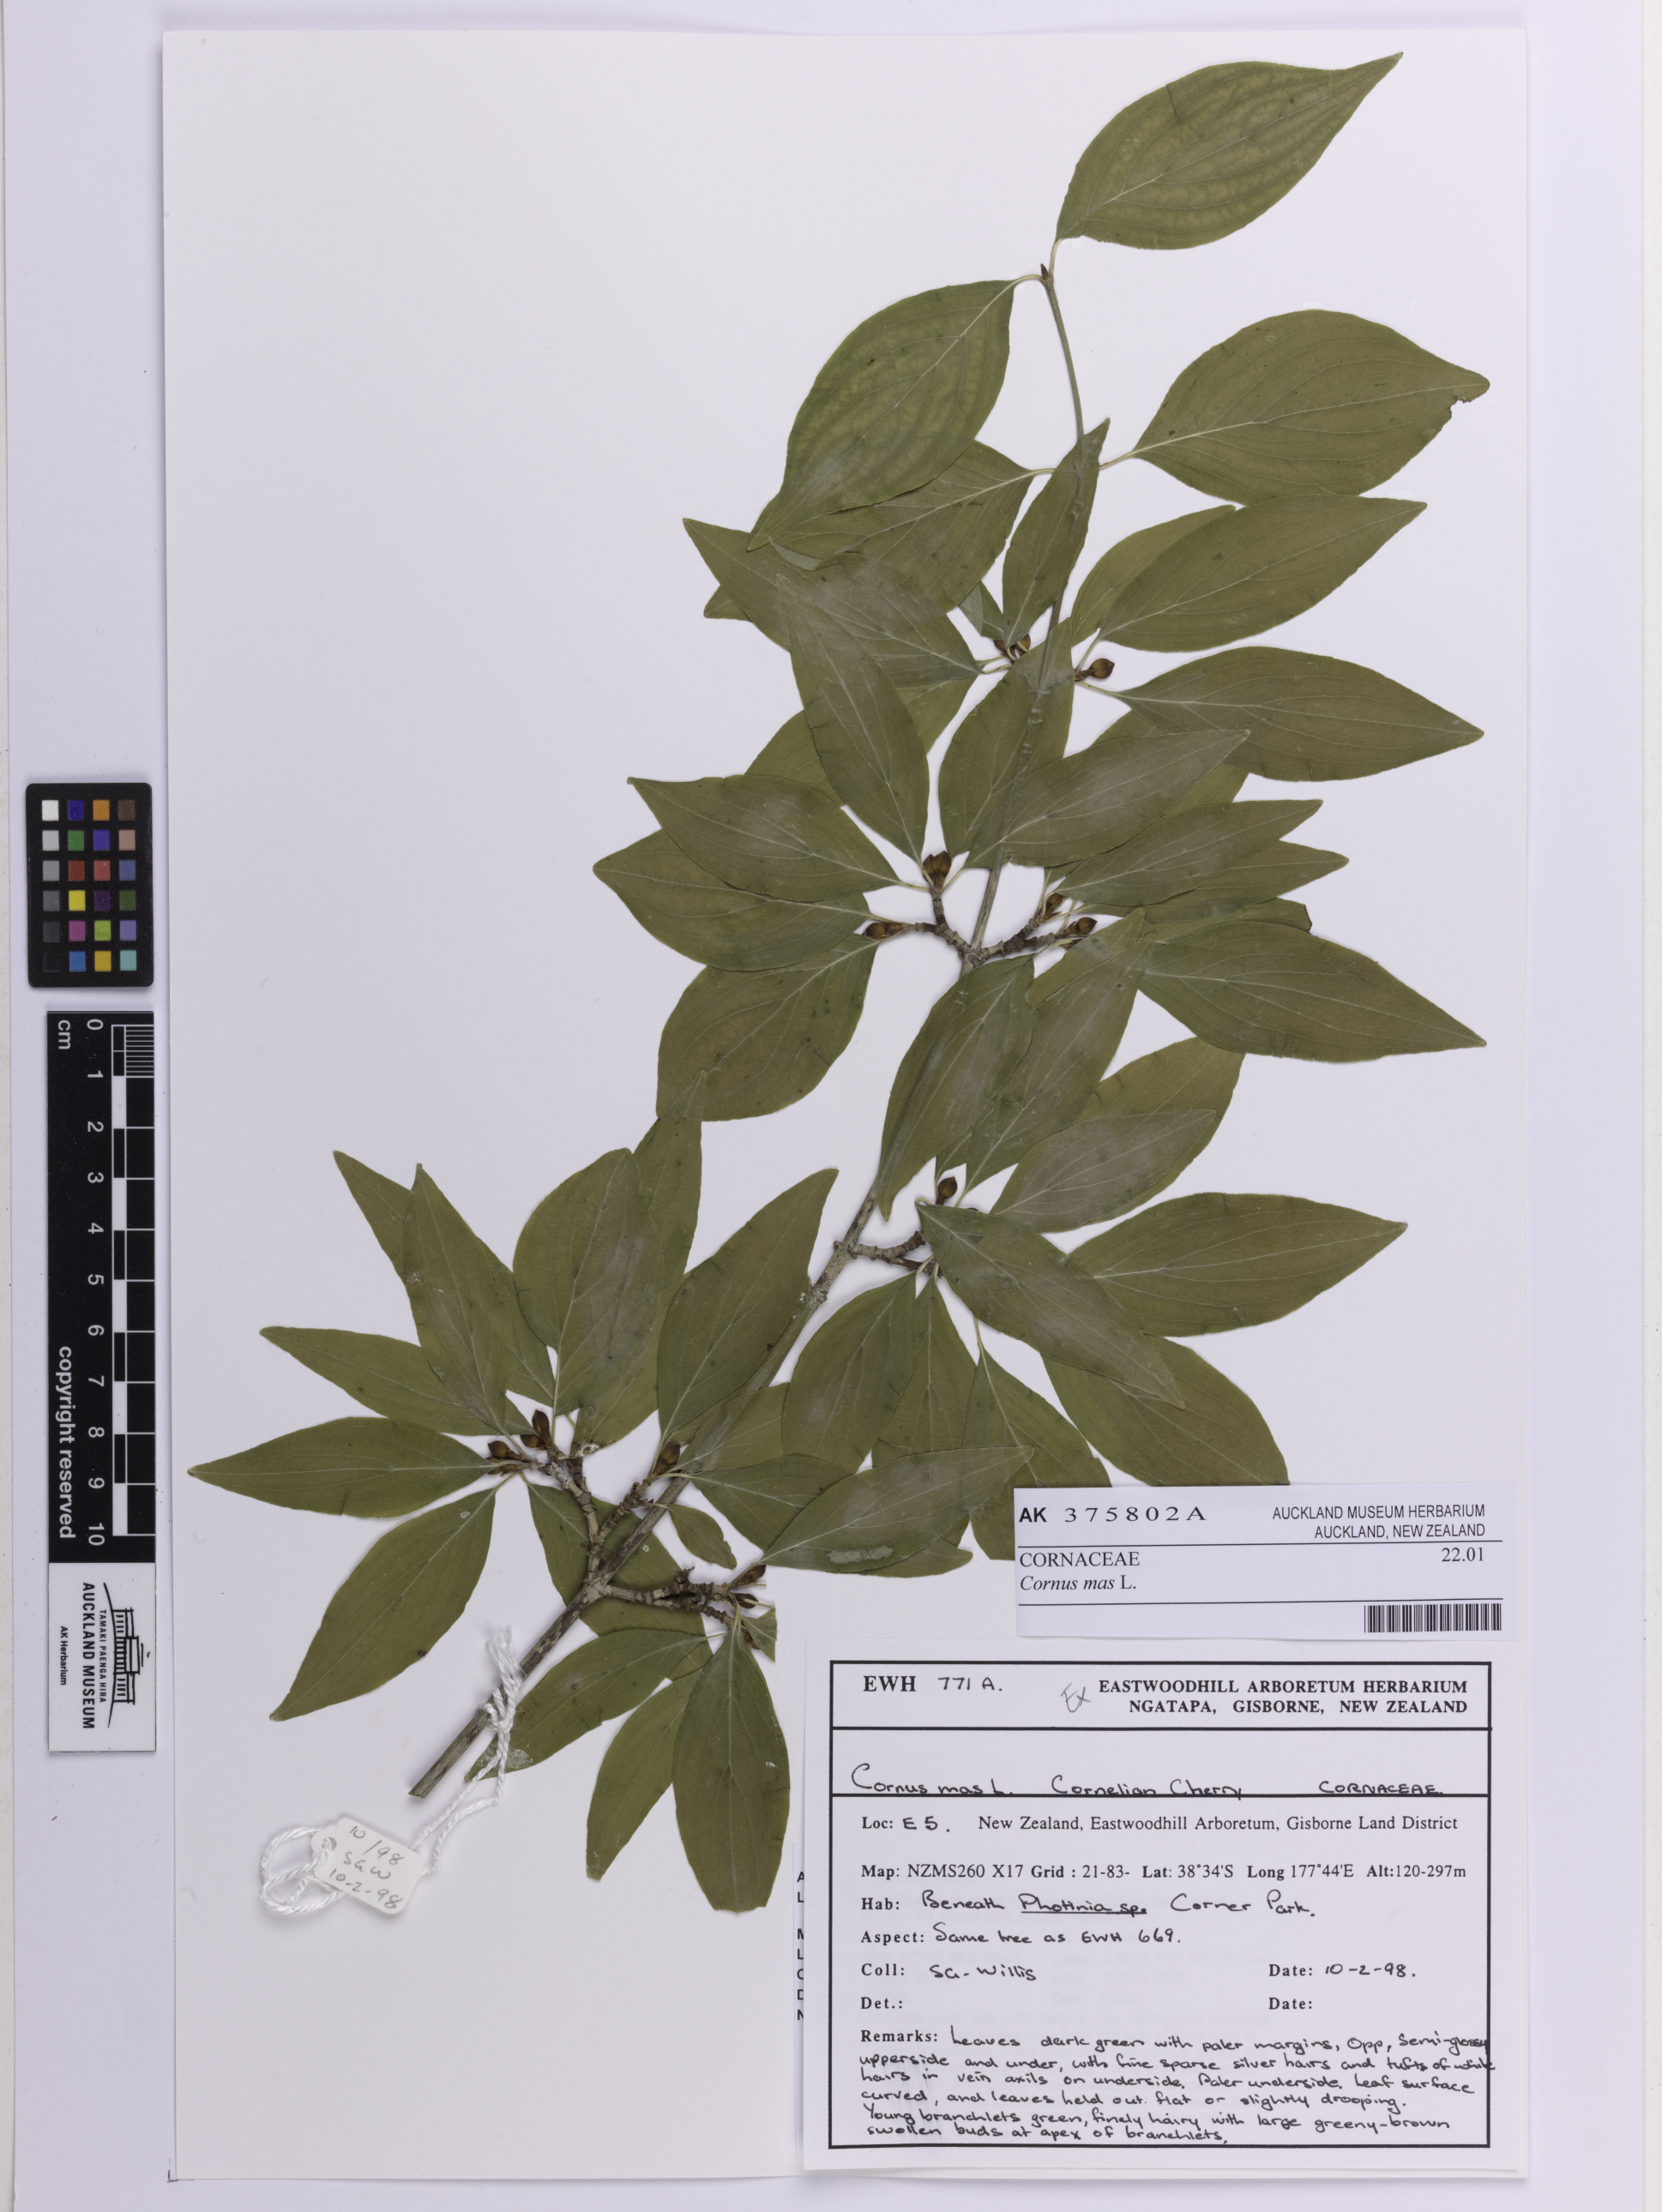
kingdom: Plantae
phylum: Tracheophyta
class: Magnoliopsida
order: Cornales
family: Cornaceae
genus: Cornus
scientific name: Cornus mas
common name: Cornelian-cherry
